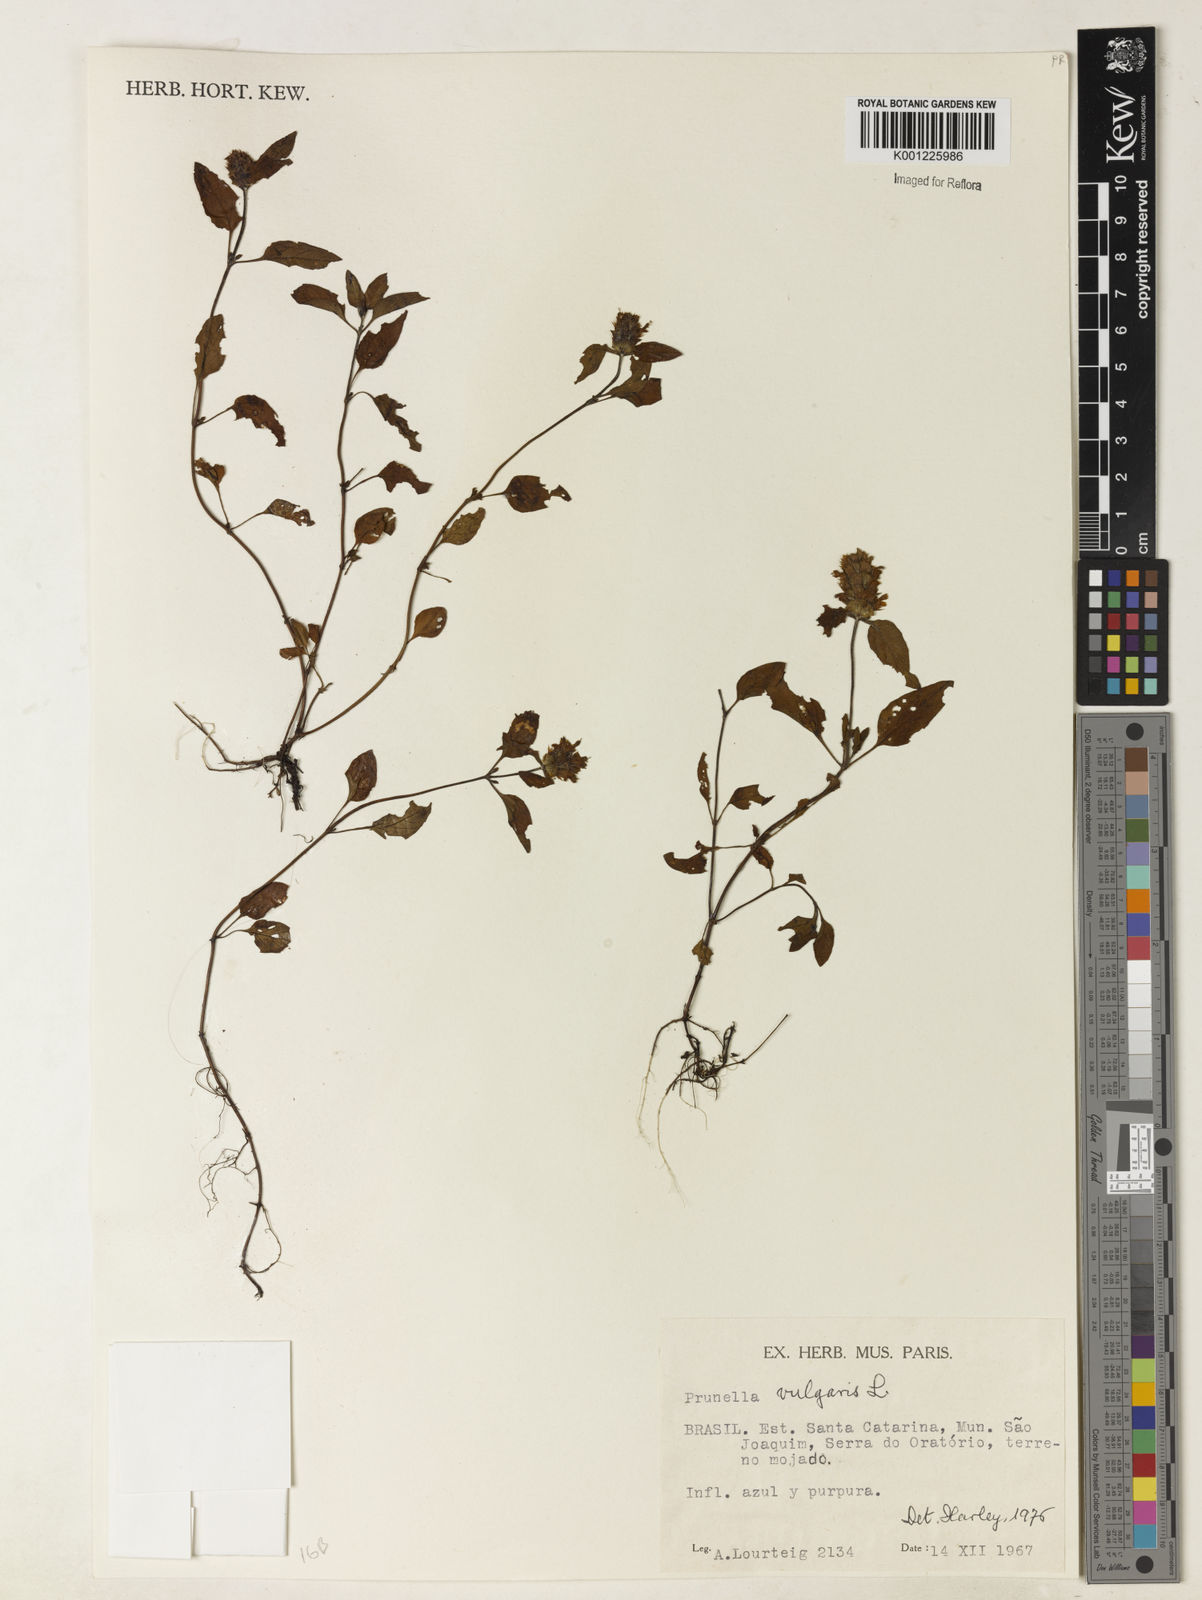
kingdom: Plantae
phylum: Tracheophyta
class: Magnoliopsida
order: Lamiales
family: Lamiaceae
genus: Prunella
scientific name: Prunella vulgaris
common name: Heal-all
